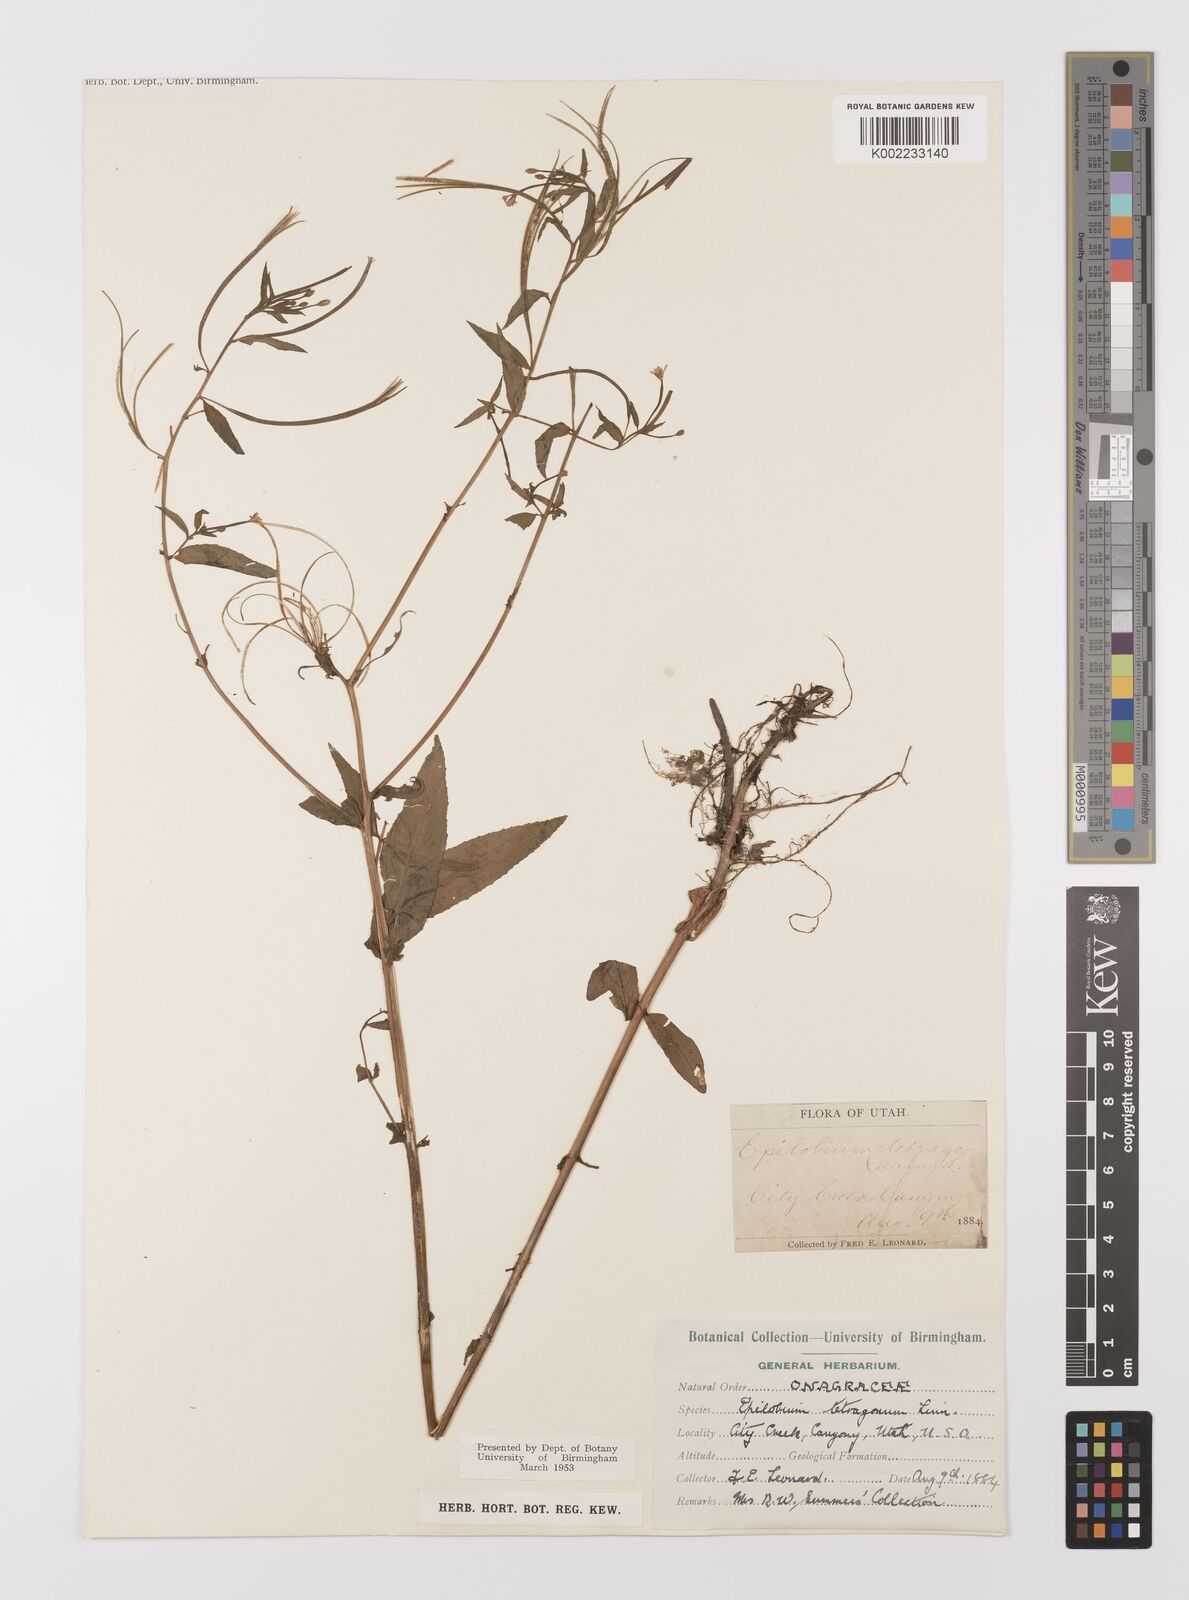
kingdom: Plantae
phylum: Tracheophyta
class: Magnoliopsida
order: Myrtales
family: Onagraceae
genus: Epilobium
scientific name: Epilobium tetragonum
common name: Square-stemmed willowherb
